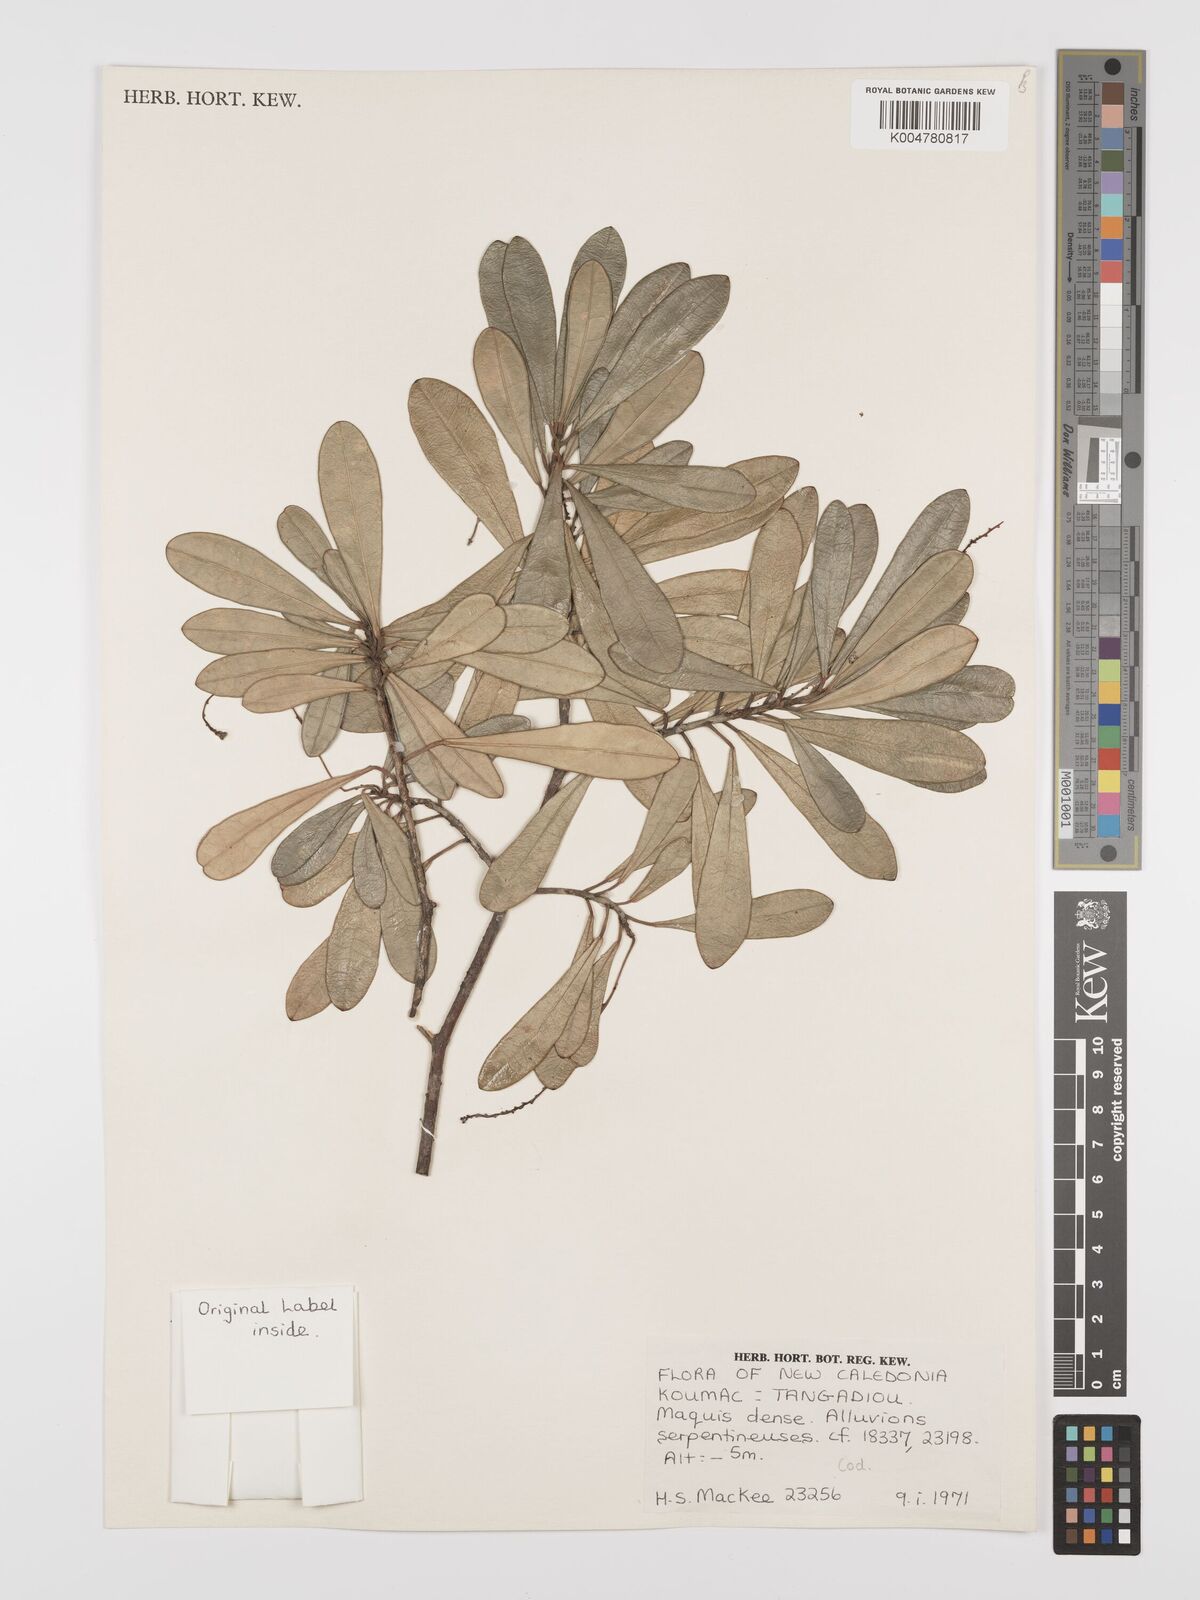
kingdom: Plantae
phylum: Tracheophyta
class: Magnoliopsida
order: Malpighiales
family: Euphorbiaceae
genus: Codiaeum
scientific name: Codiaeum
